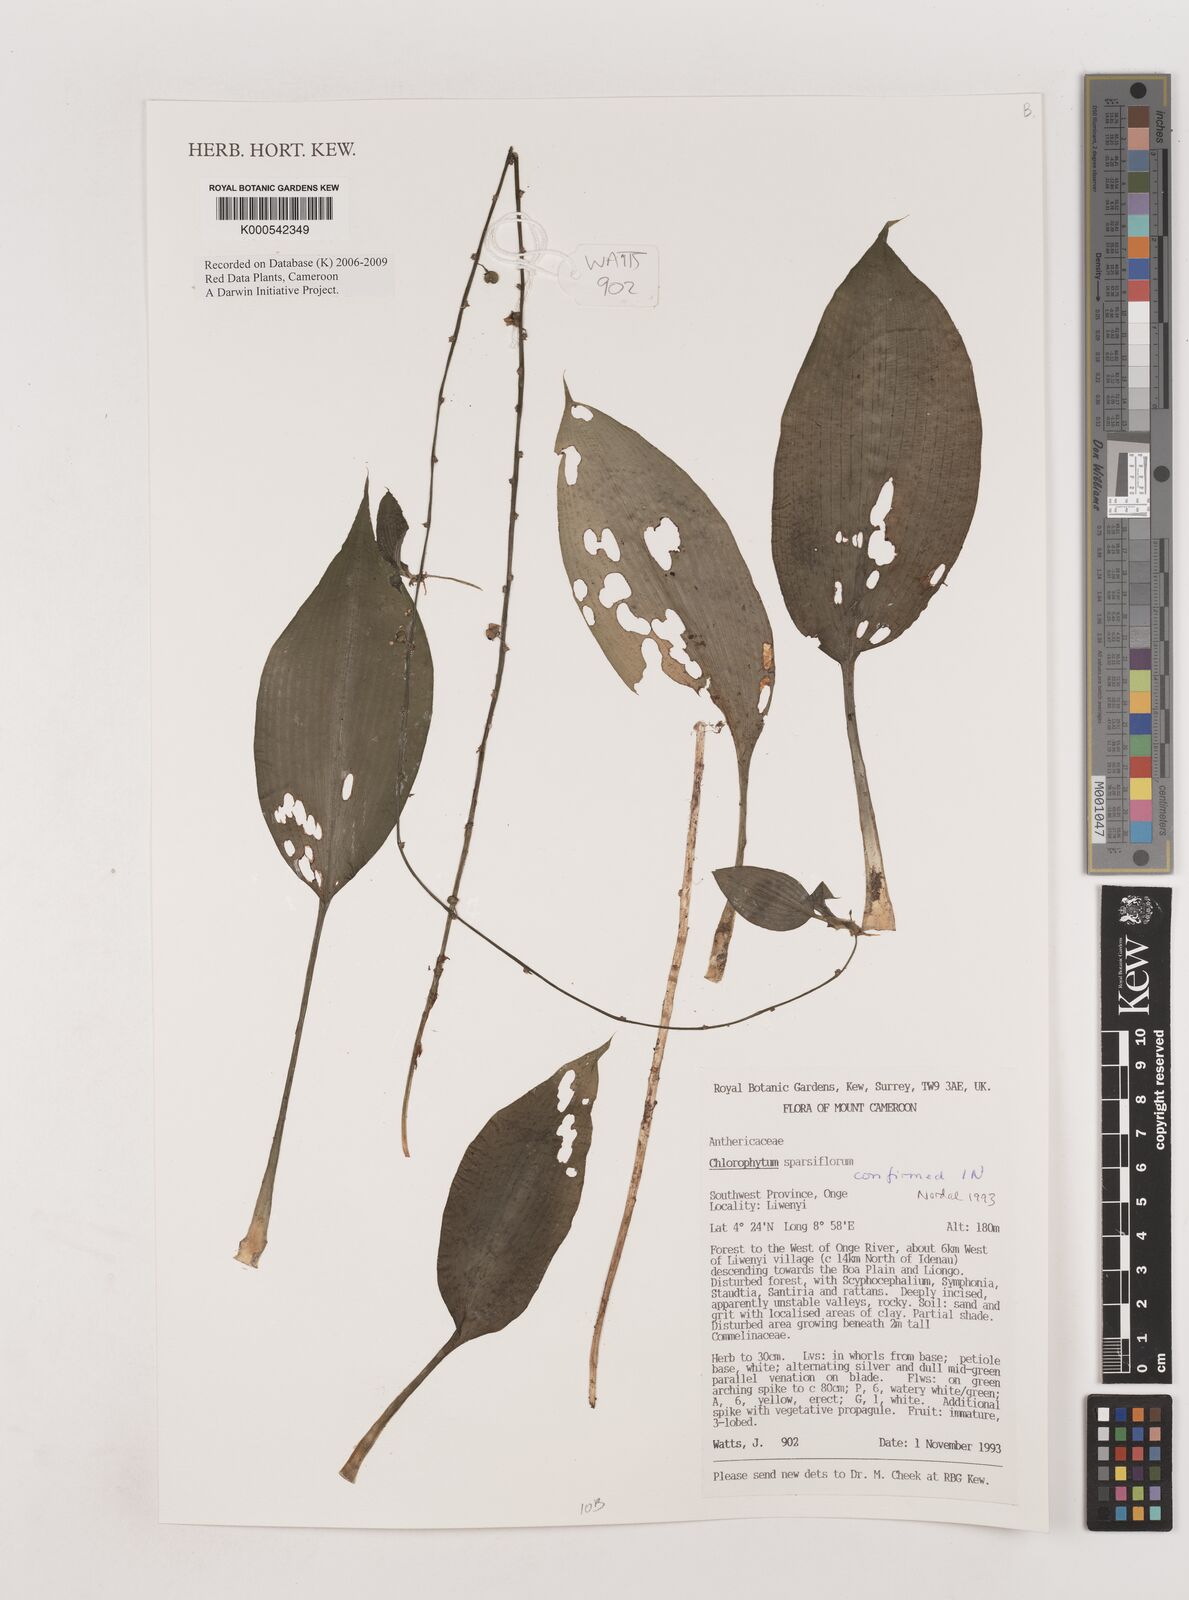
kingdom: Plantae
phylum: Tracheophyta
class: Liliopsida
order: Asparagales
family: Asparagaceae
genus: Chlorophytum
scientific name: Chlorophytum sparsiflorum
